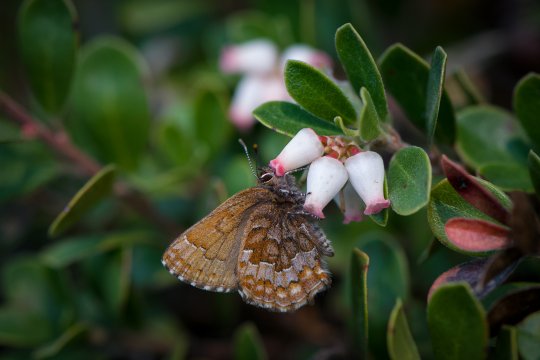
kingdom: Animalia
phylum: Arthropoda
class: Insecta
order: Lepidoptera
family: Lycaenidae
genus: Incisalia
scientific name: Incisalia niphon
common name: Eastern Pine Elfin
